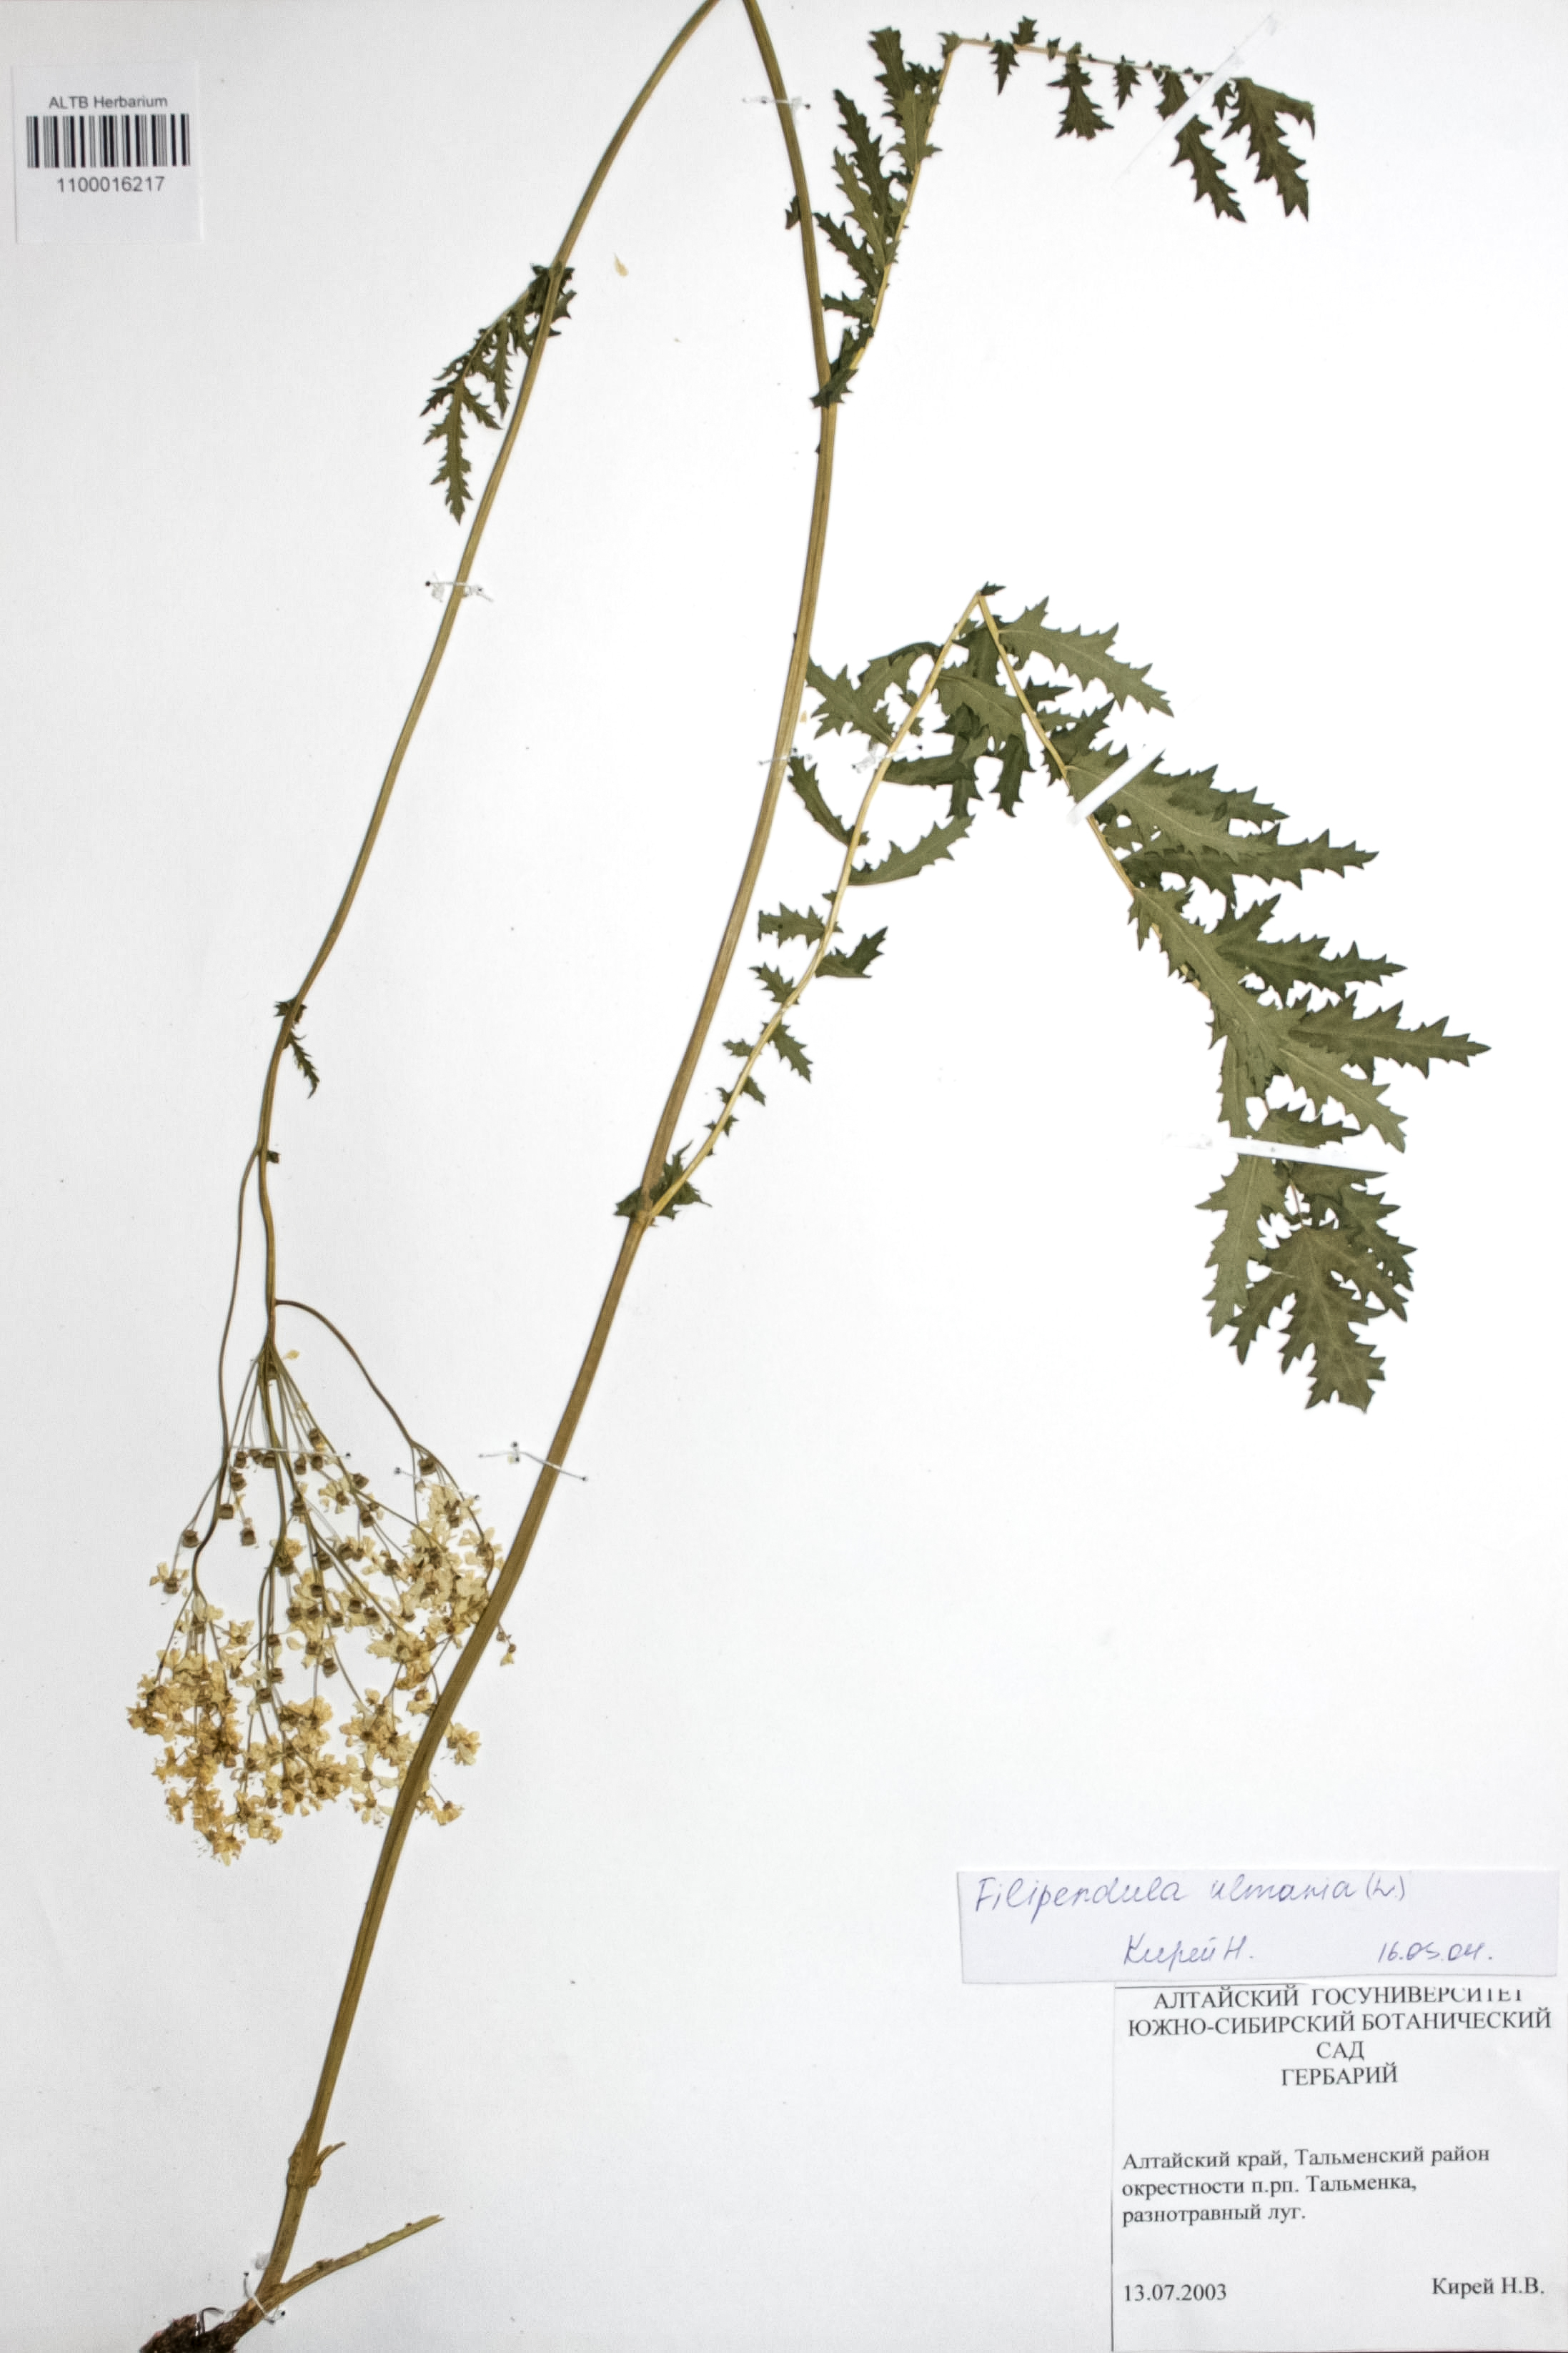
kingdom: Plantae
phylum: Tracheophyta
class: Magnoliopsida
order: Rosales
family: Rosaceae
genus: Filipendula
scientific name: Filipendula ulmaria
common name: Meadowsweet
